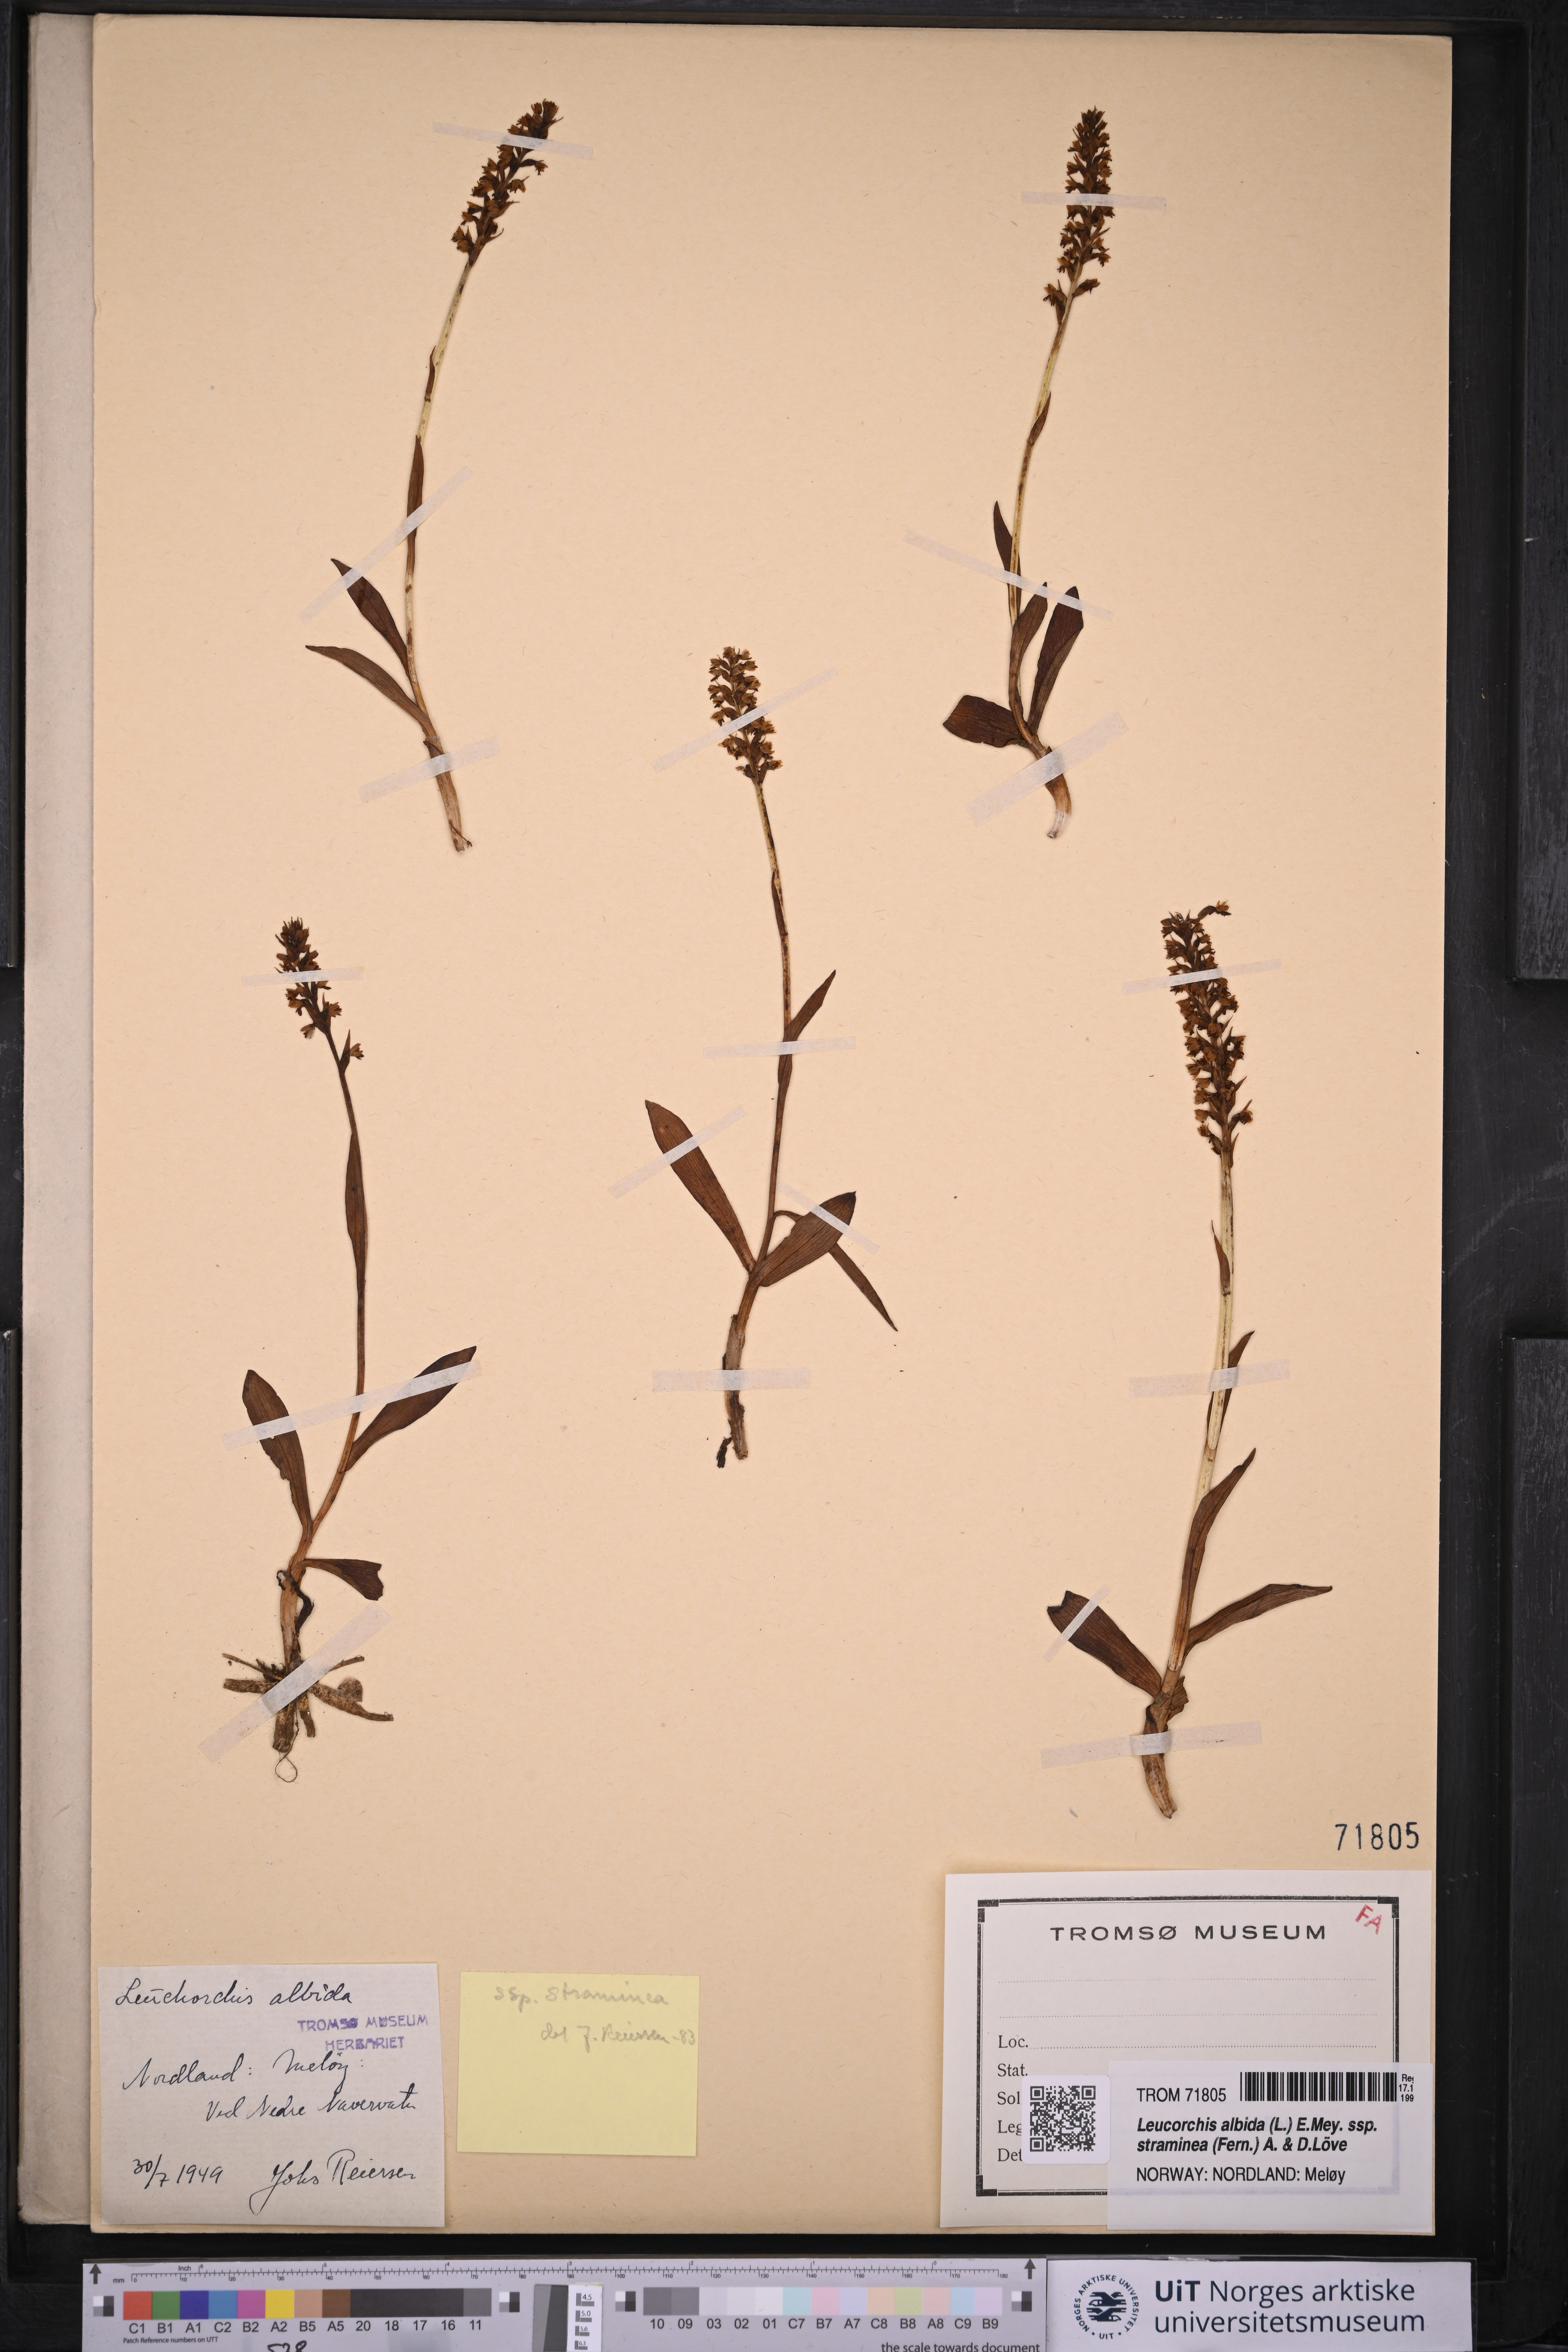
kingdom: Plantae
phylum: Tracheophyta
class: Liliopsida
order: Asparagales
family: Orchidaceae
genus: Pseudorchis
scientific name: Pseudorchis straminea
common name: Vanilla-scented bog orchid
